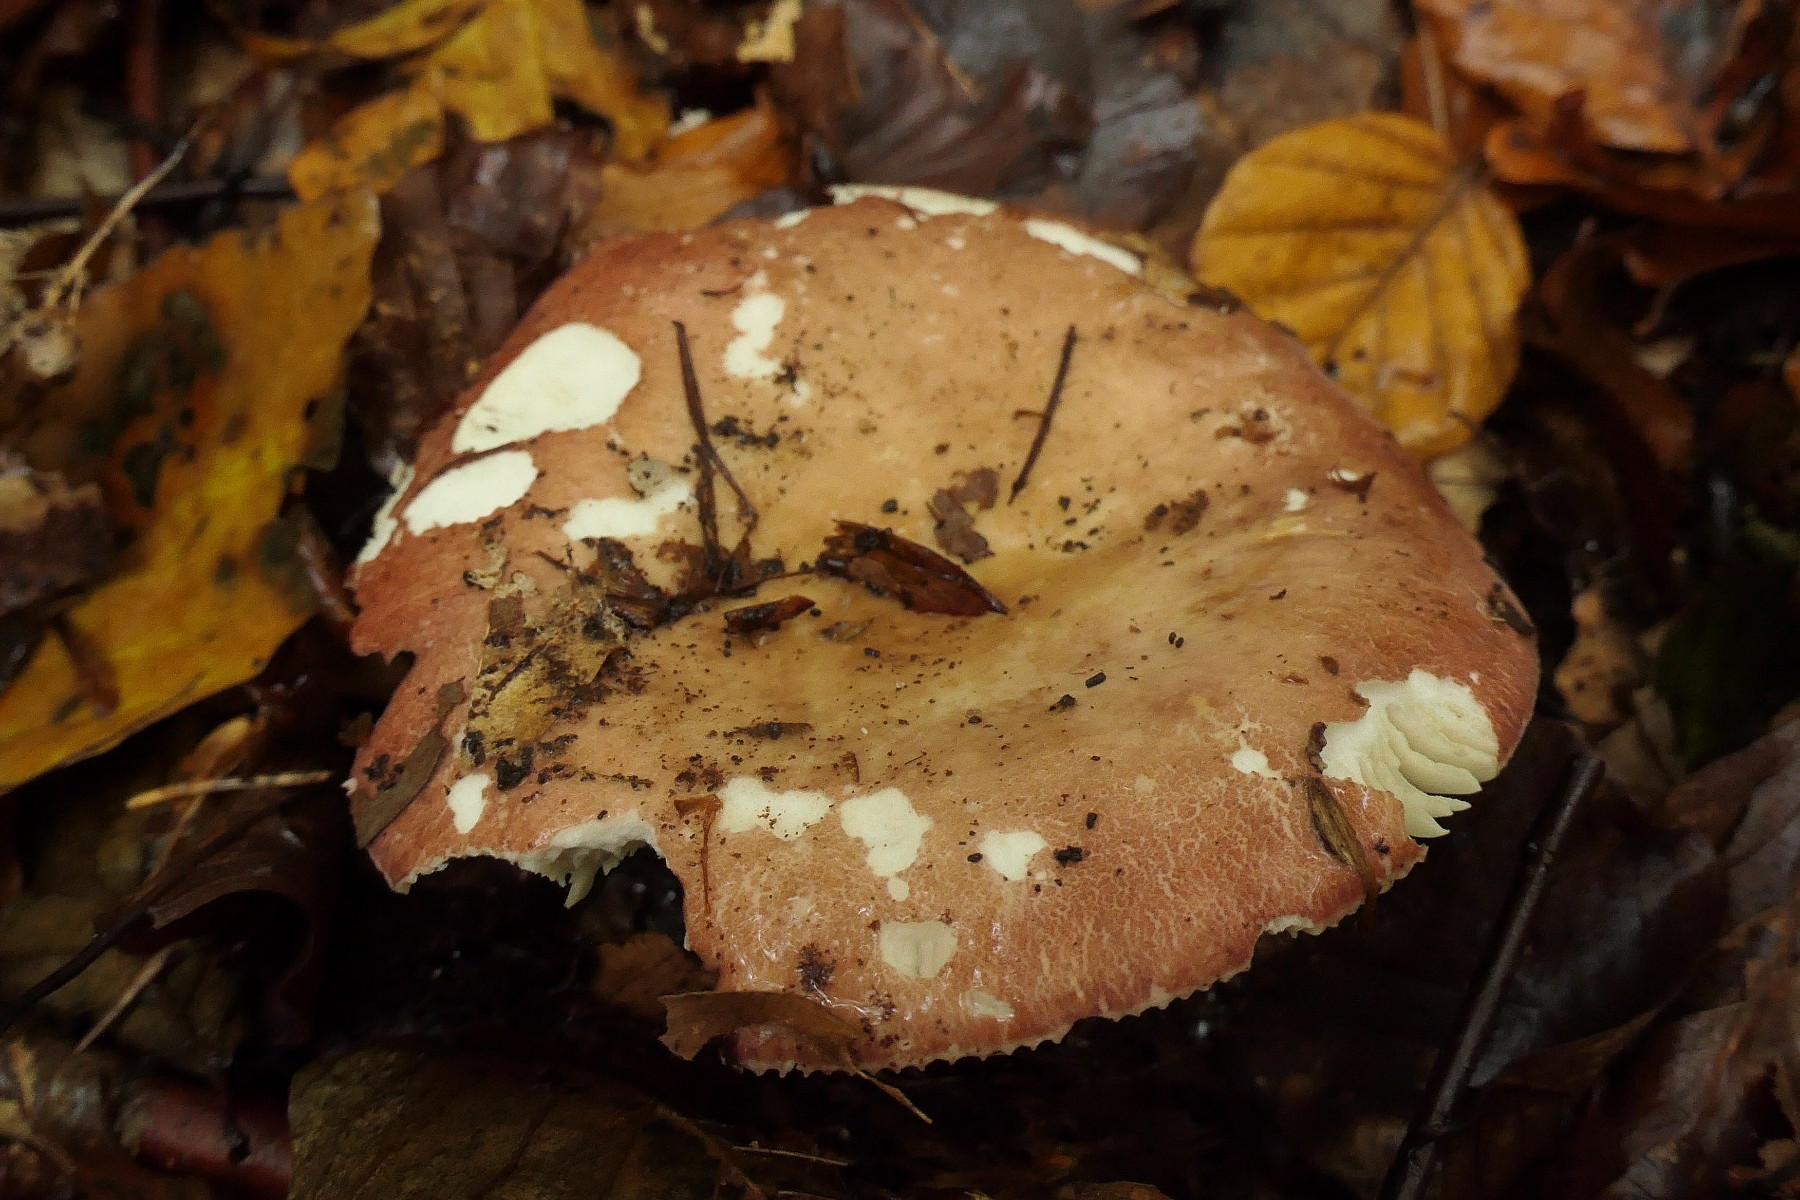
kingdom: Fungi
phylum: Basidiomycota
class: Agaricomycetes
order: Russulales
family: Russulaceae
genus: Russula
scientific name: Russula curtipes
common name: kortstokket skørhat
